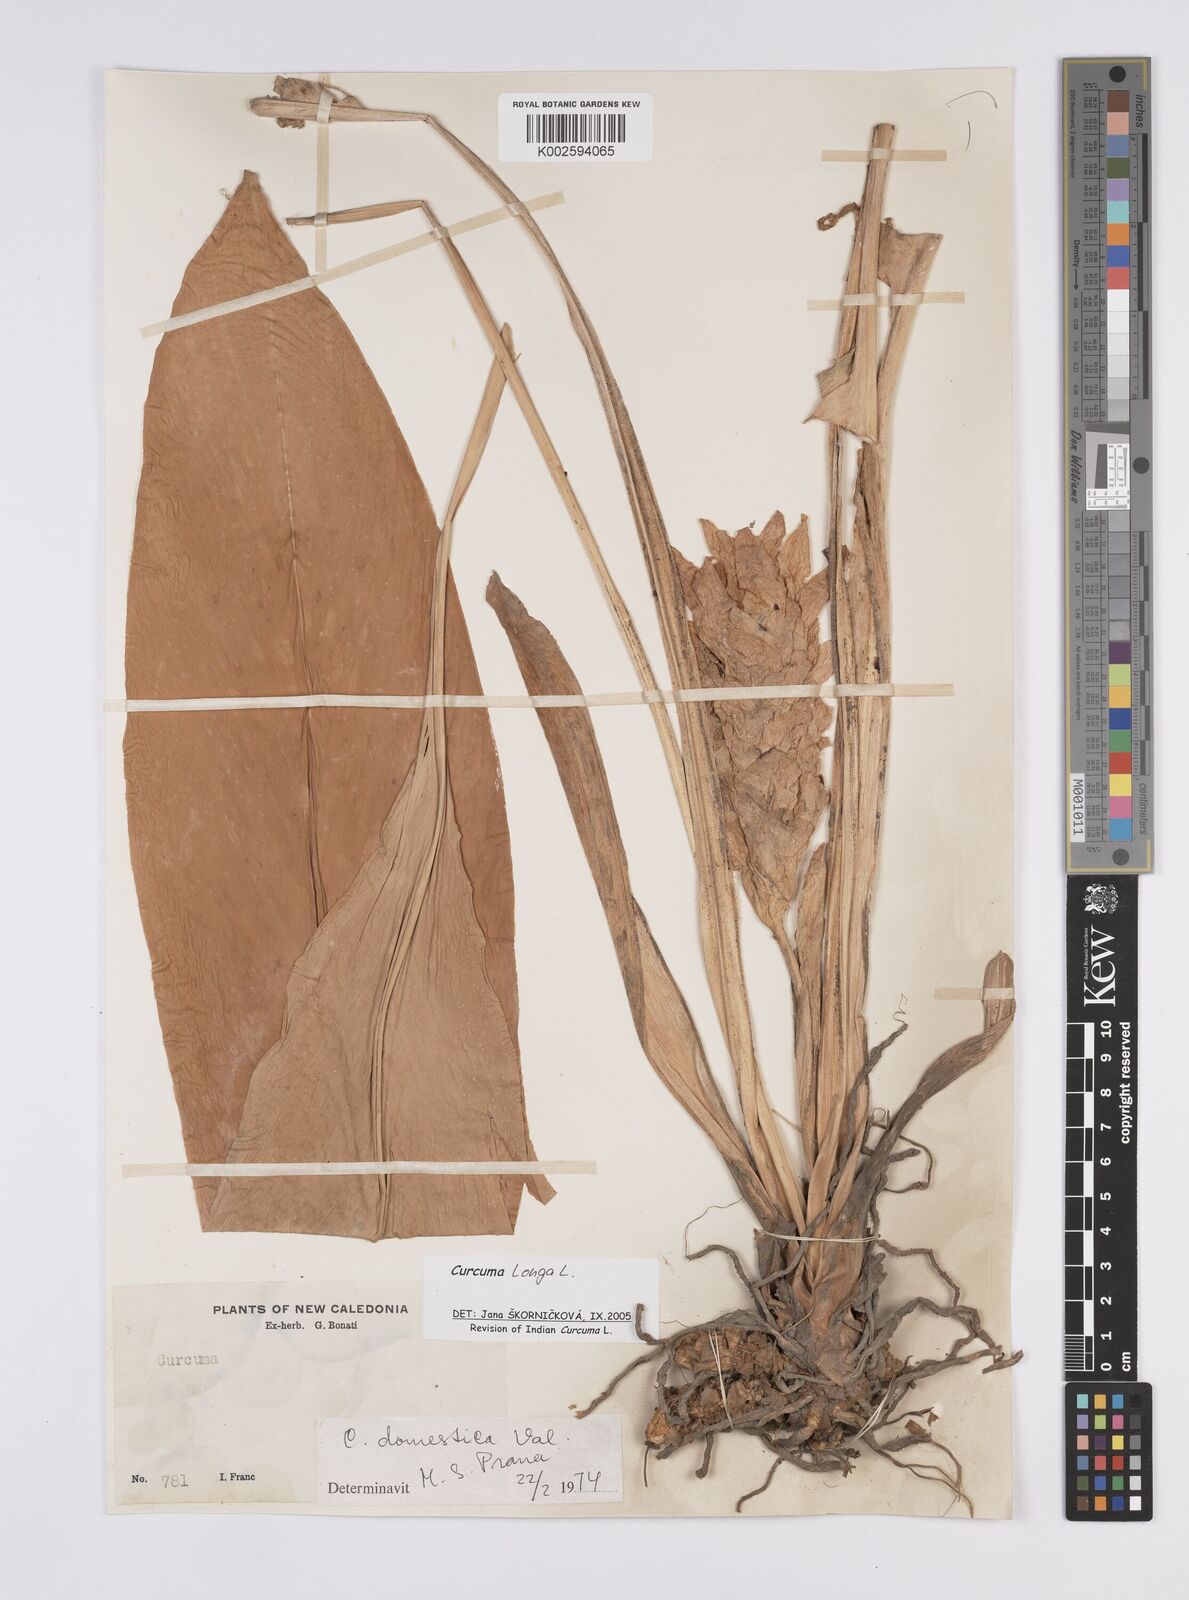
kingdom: Plantae
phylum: Tracheophyta
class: Liliopsida
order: Zingiberales
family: Zingiberaceae
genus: Curcuma
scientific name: Curcuma longa
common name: Turmeric
